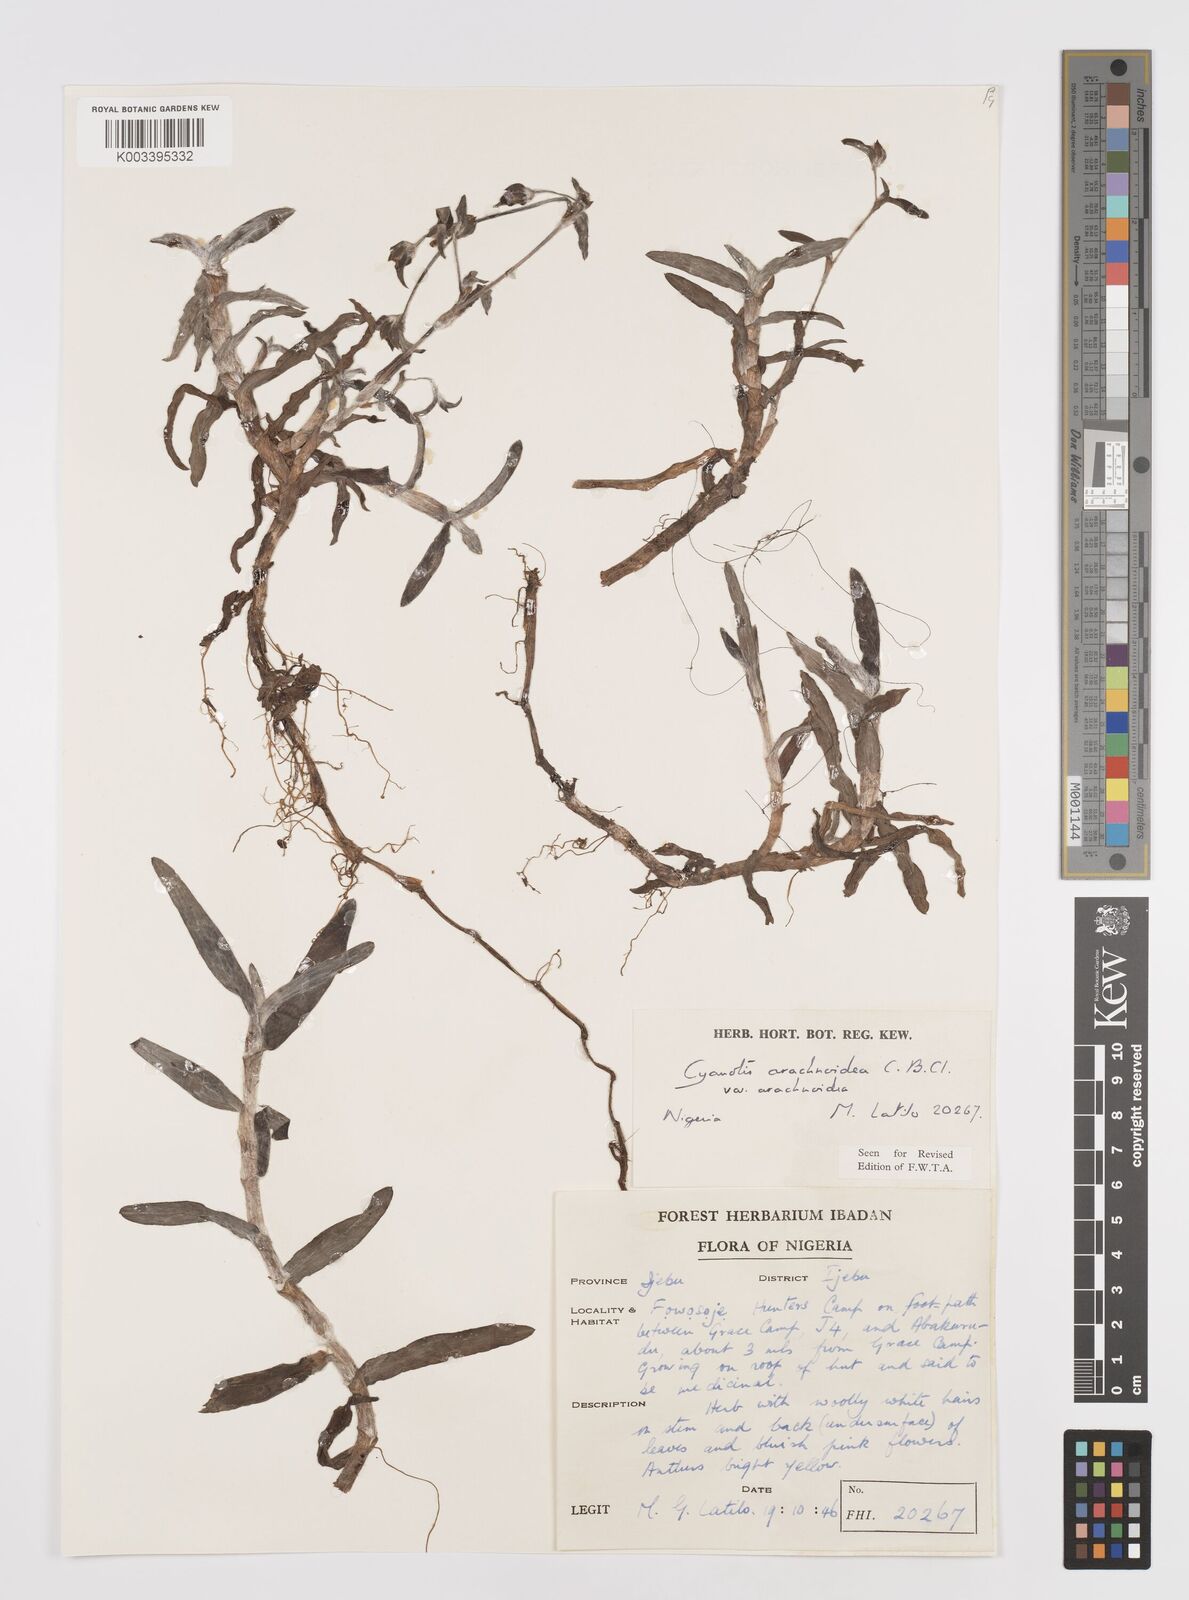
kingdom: Plantae
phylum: Tracheophyta
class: Liliopsida
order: Commelinales
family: Commelinaceae
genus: Cyanotis
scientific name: Cyanotis arachnoidea
